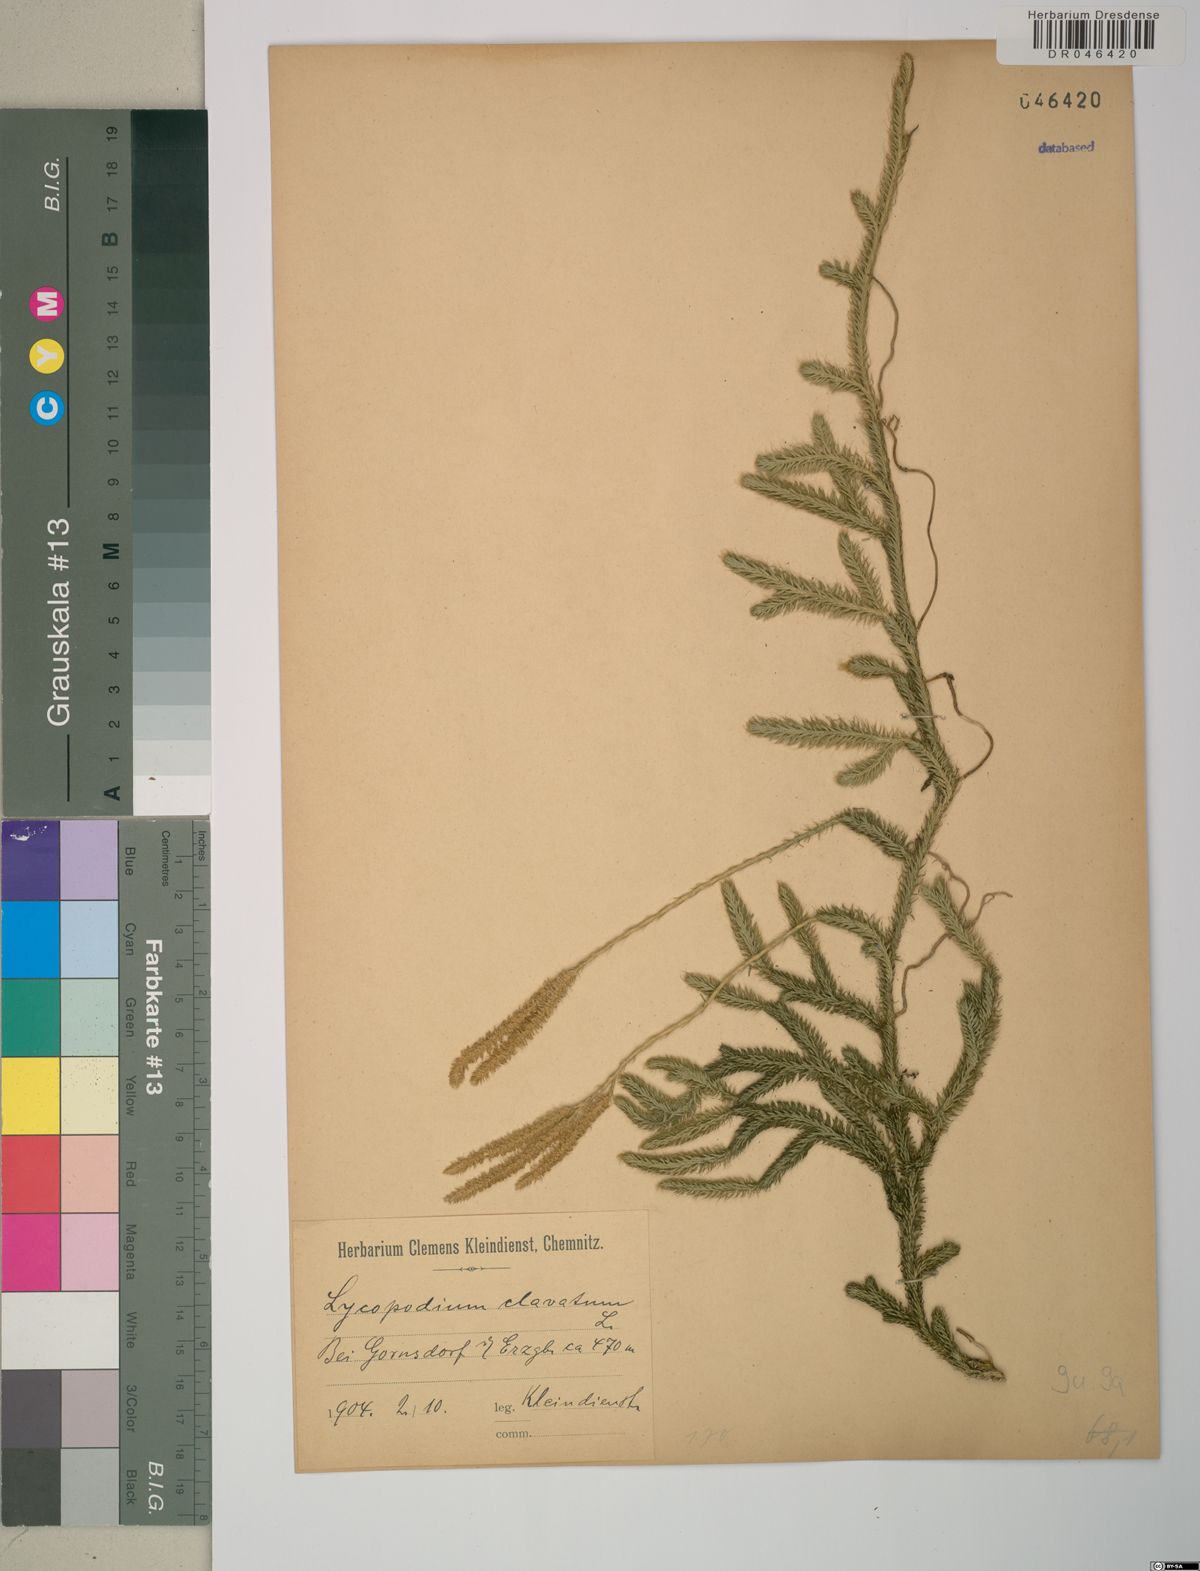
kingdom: Plantae
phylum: Tracheophyta
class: Lycopodiopsida
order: Lycopodiales
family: Lycopodiaceae
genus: Lycopodium
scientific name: Lycopodium clavatum
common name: Stag's-horn clubmoss
